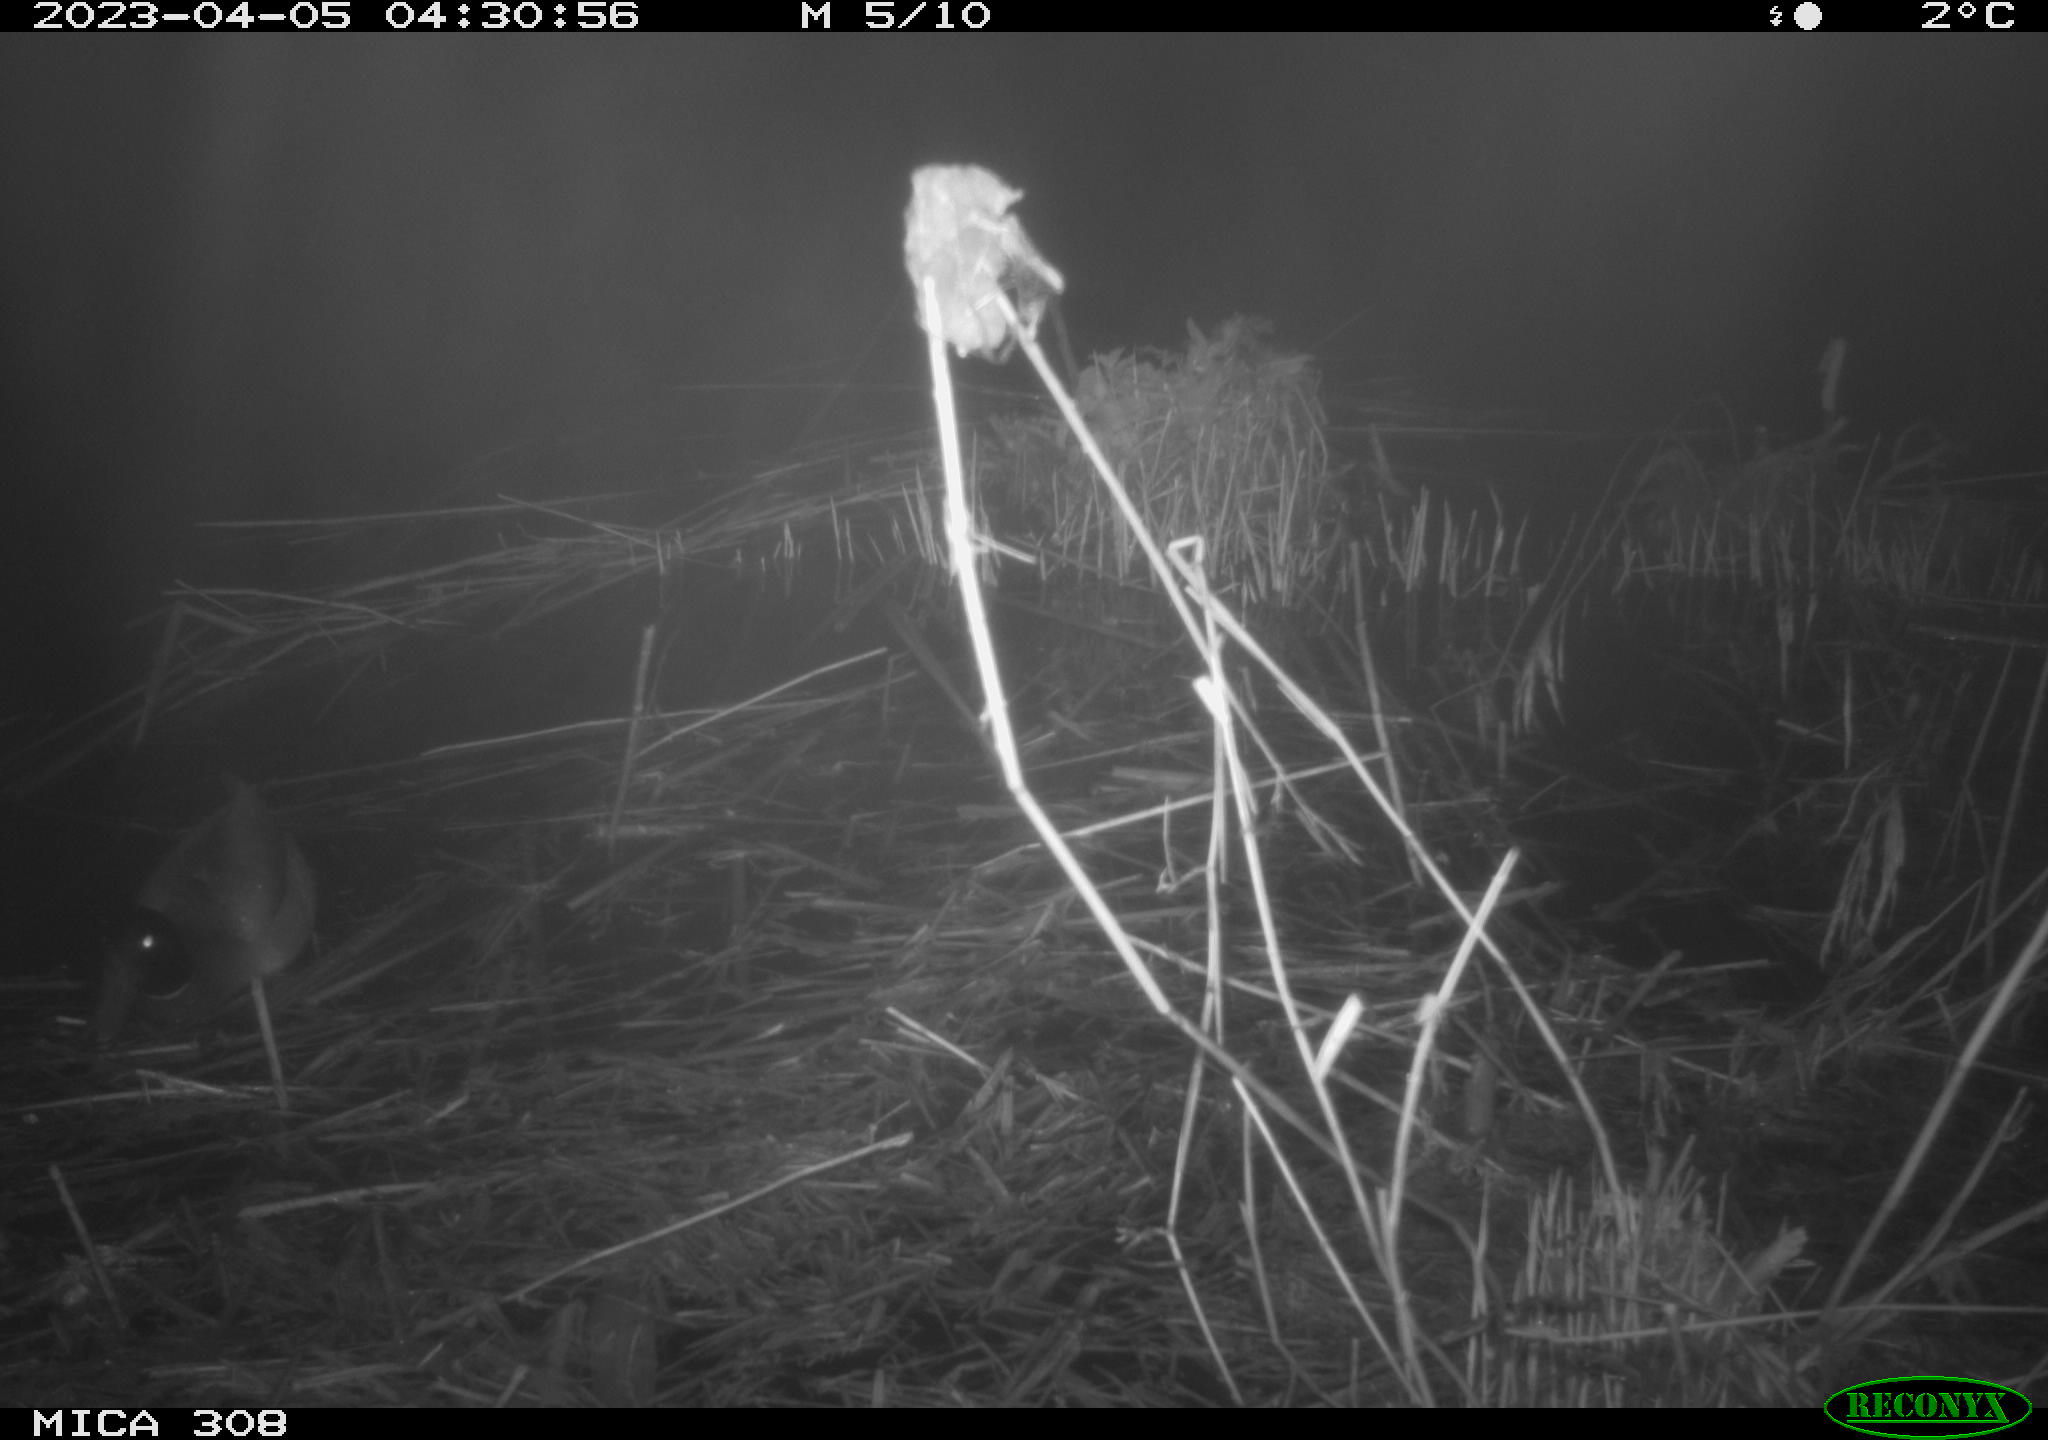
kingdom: Animalia
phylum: Chordata
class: Aves
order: Gruiformes
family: Rallidae
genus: Gallinula
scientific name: Gallinula chloropus
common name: Common moorhen
